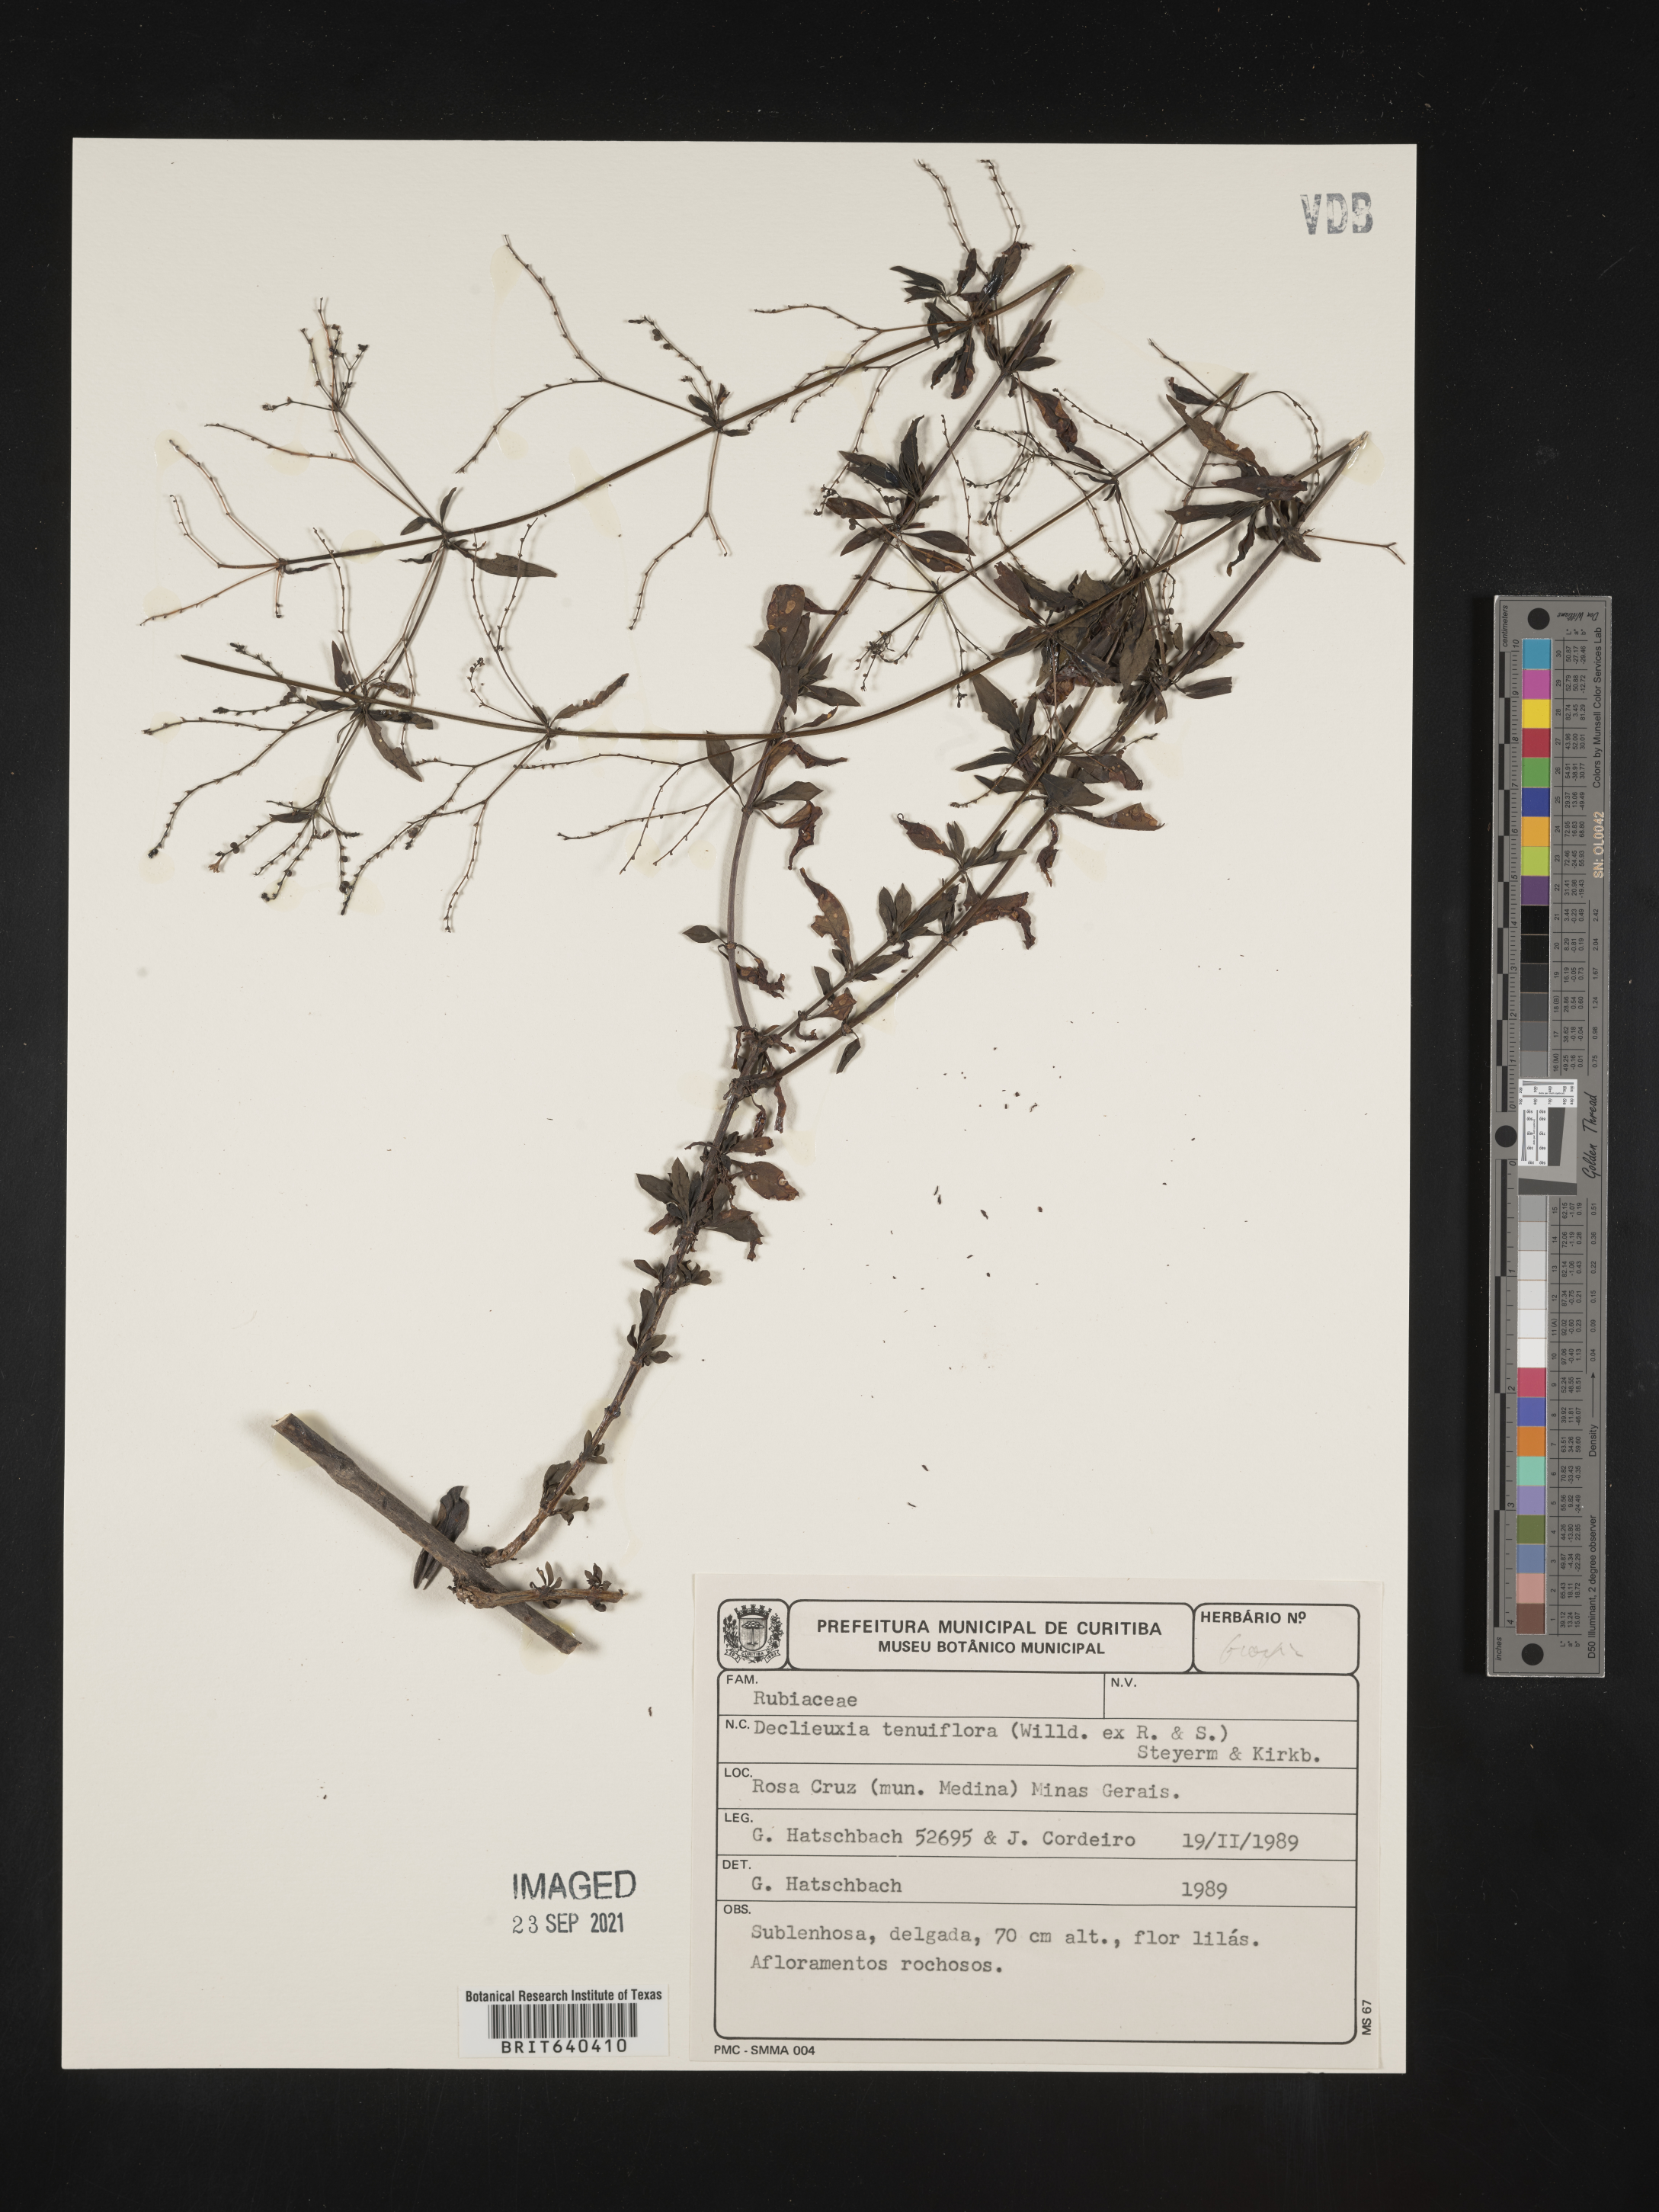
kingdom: Plantae
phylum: Tracheophyta
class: Magnoliopsida
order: Gentianales
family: Rubiaceae
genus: Declieuxia
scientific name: Declieuxia
